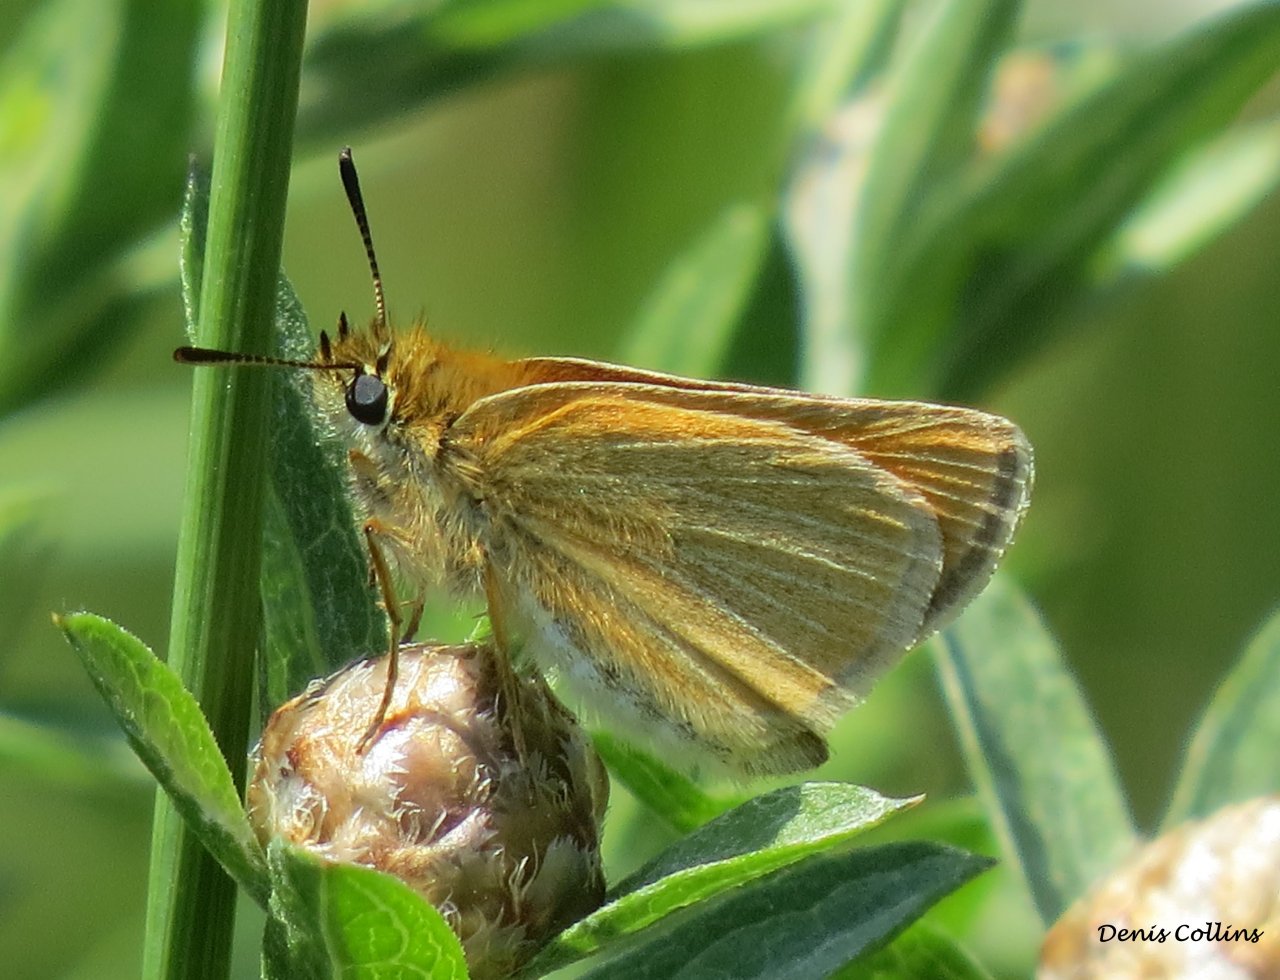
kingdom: Animalia
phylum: Arthropoda
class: Insecta
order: Lepidoptera
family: Hesperiidae
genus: Thymelicus
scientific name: Thymelicus lineola
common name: European Skipper
